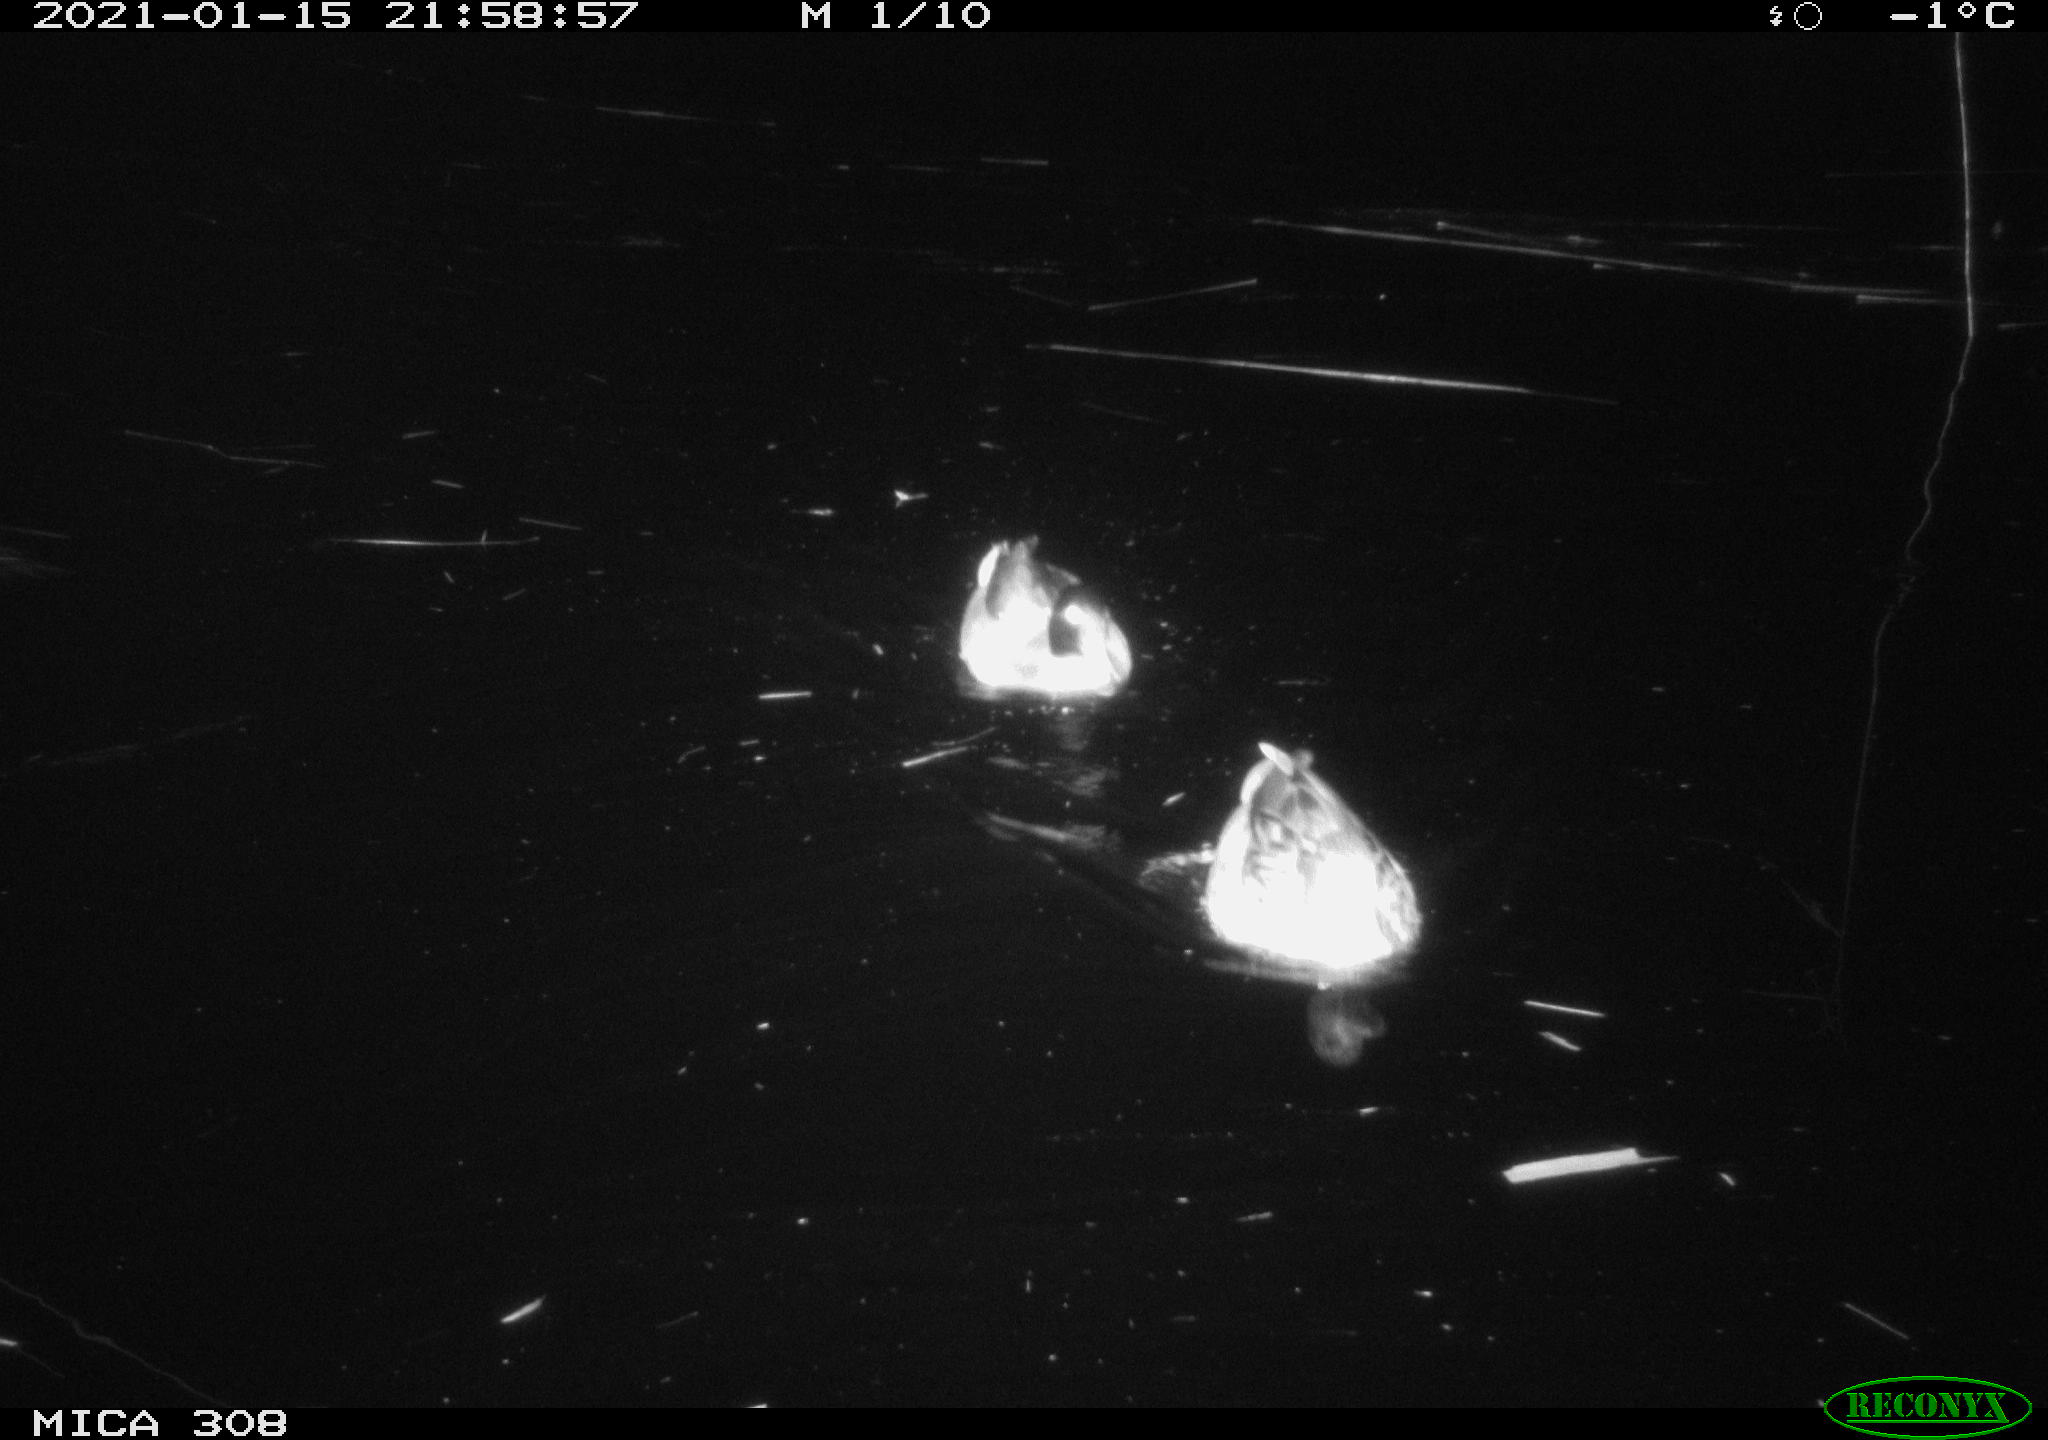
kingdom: Animalia
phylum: Chordata
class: Aves
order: Anseriformes
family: Anatidae
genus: Anas
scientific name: Anas platyrhynchos
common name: Mallard
